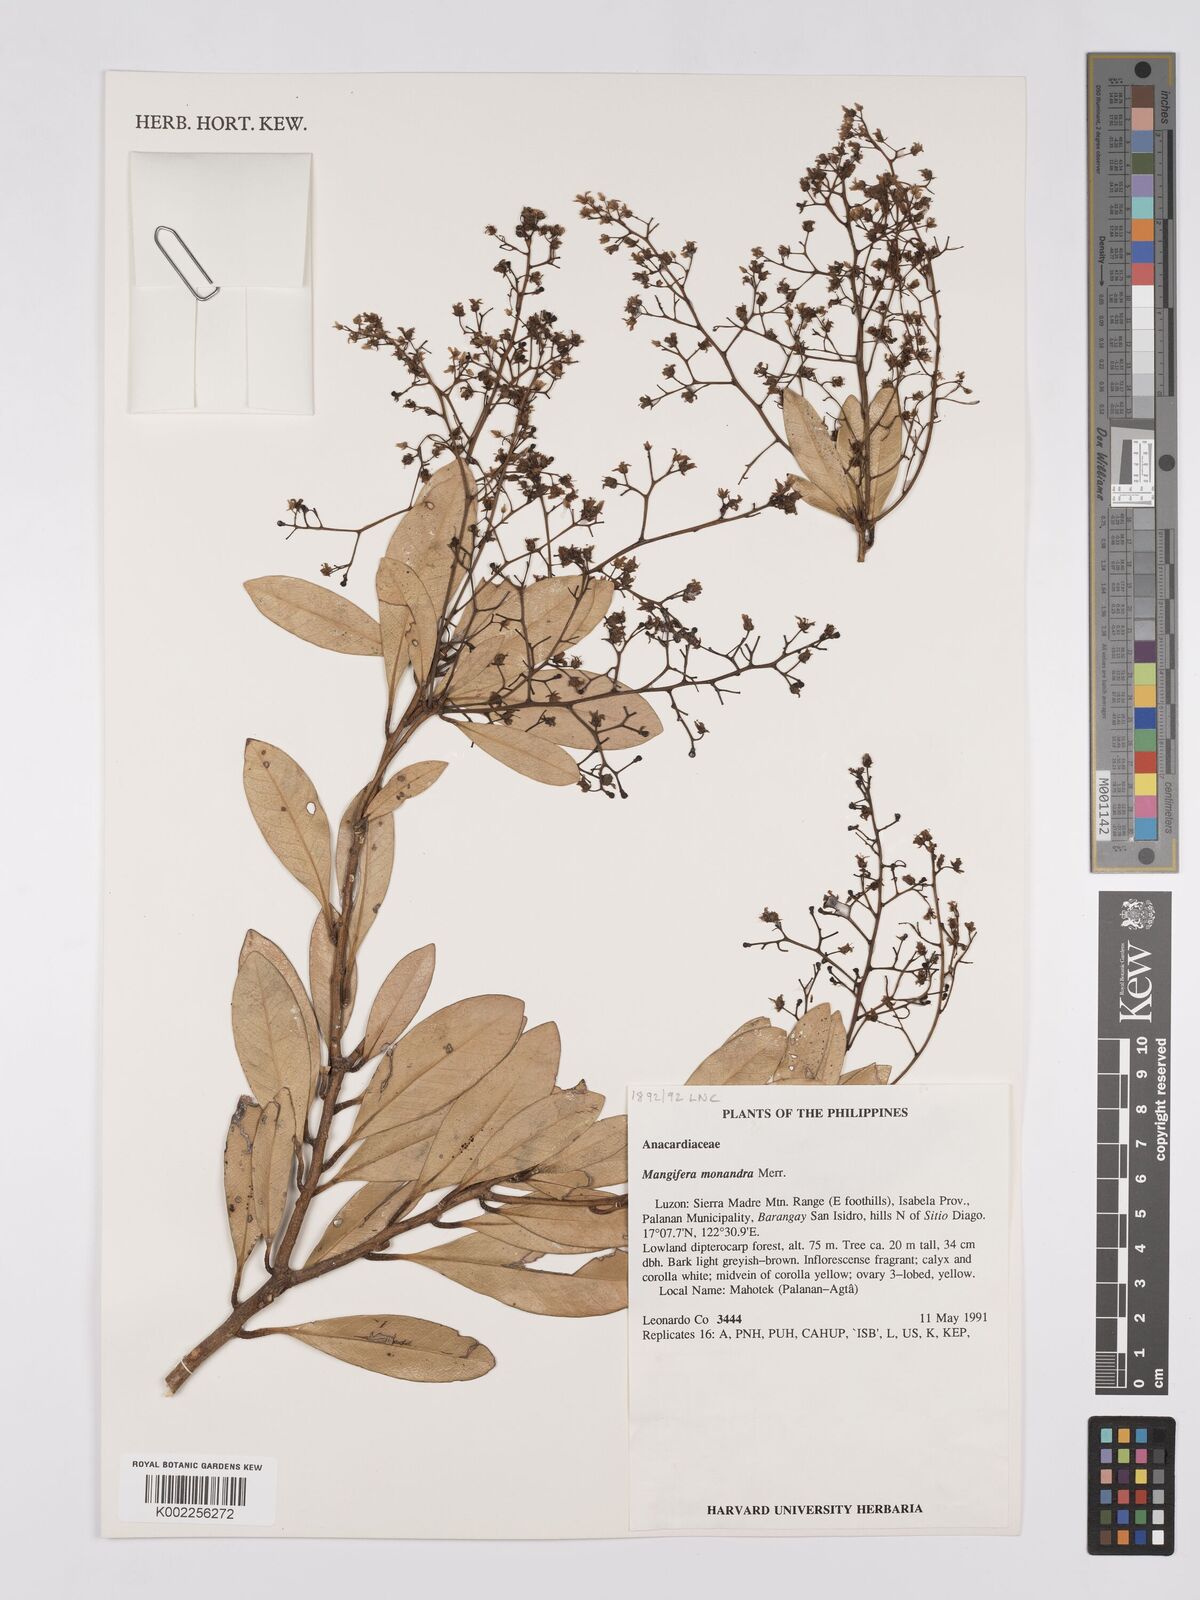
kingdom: Plantae
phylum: Tracheophyta
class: Magnoliopsida
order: Sapindales
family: Anacardiaceae
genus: Mangifera
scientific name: Mangifera monandra
